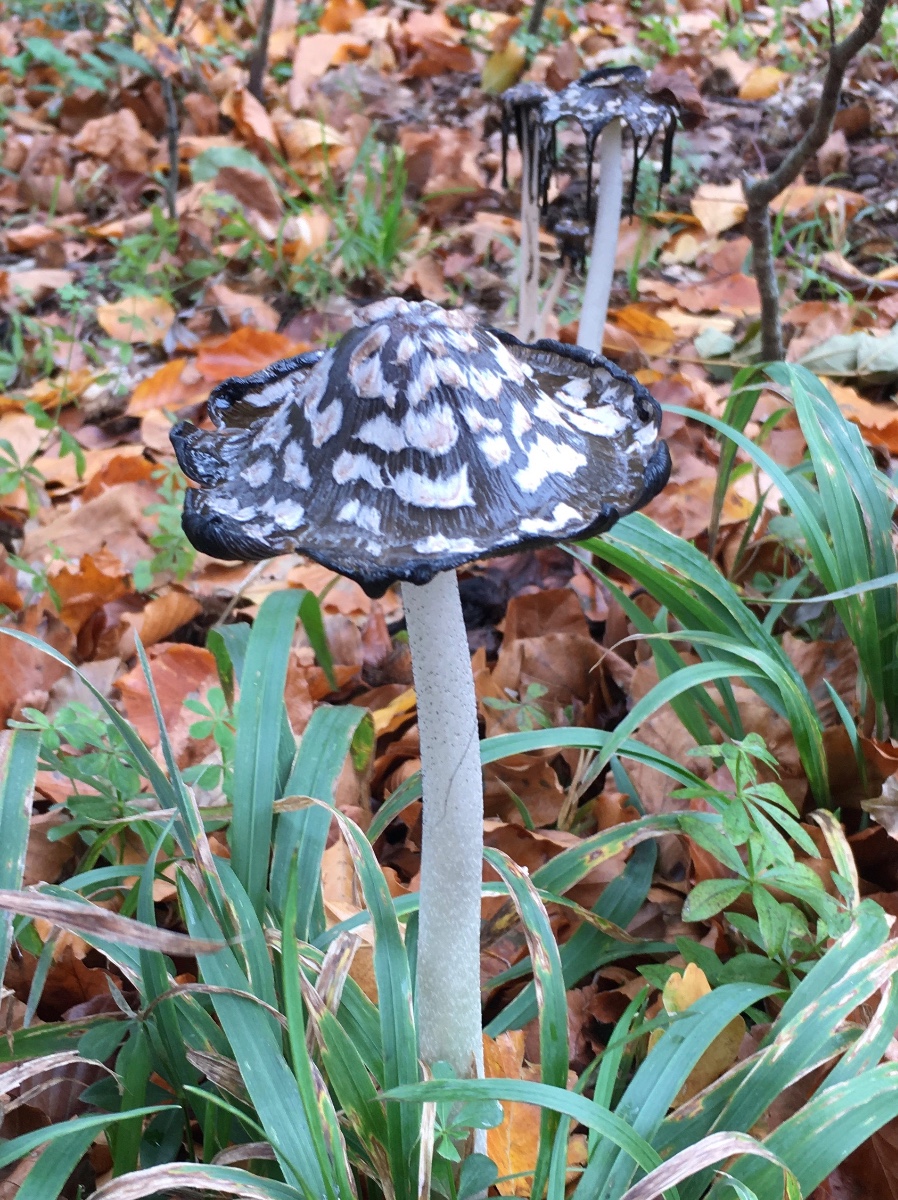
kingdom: Fungi
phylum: Basidiomycota
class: Agaricomycetes
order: Agaricales
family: Psathyrellaceae
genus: Coprinopsis
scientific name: Coprinopsis picacea
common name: skade-blækhat
